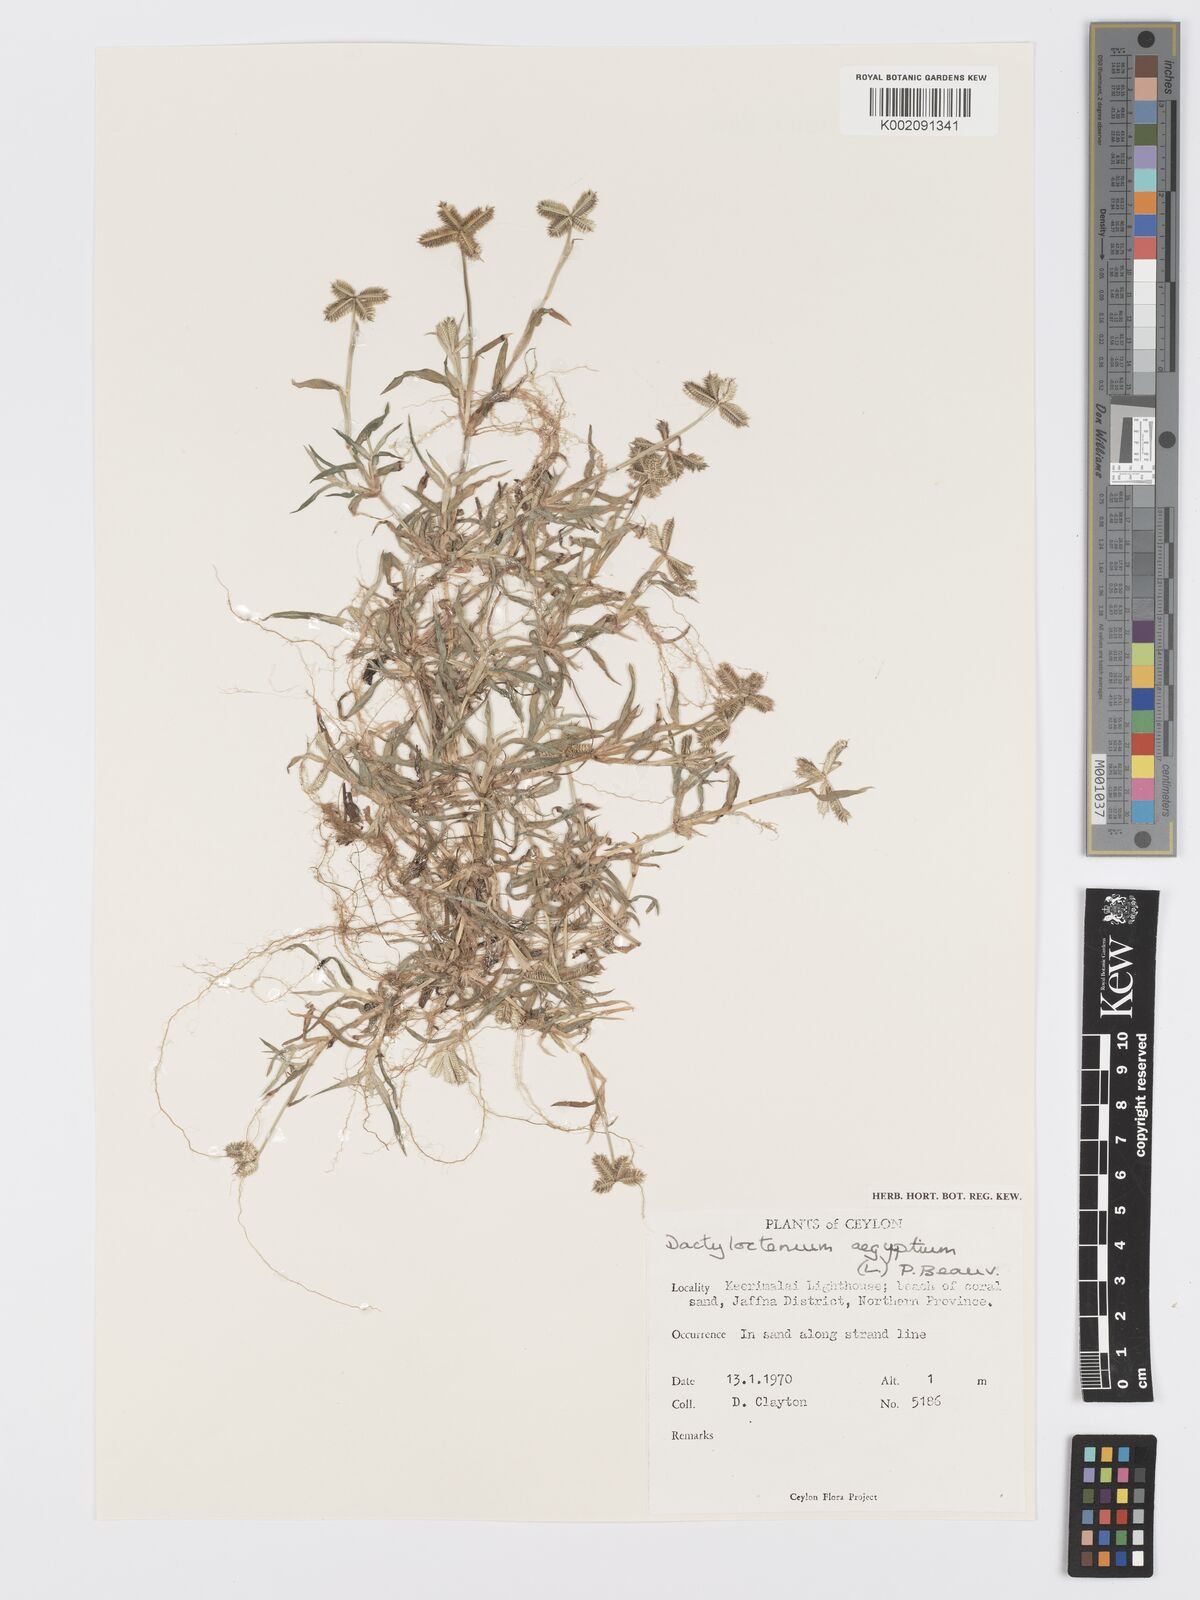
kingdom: Plantae
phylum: Tracheophyta
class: Liliopsida
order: Poales
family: Poaceae
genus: Dactyloctenium
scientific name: Dactyloctenium aegyptium
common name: Egyptian grass
